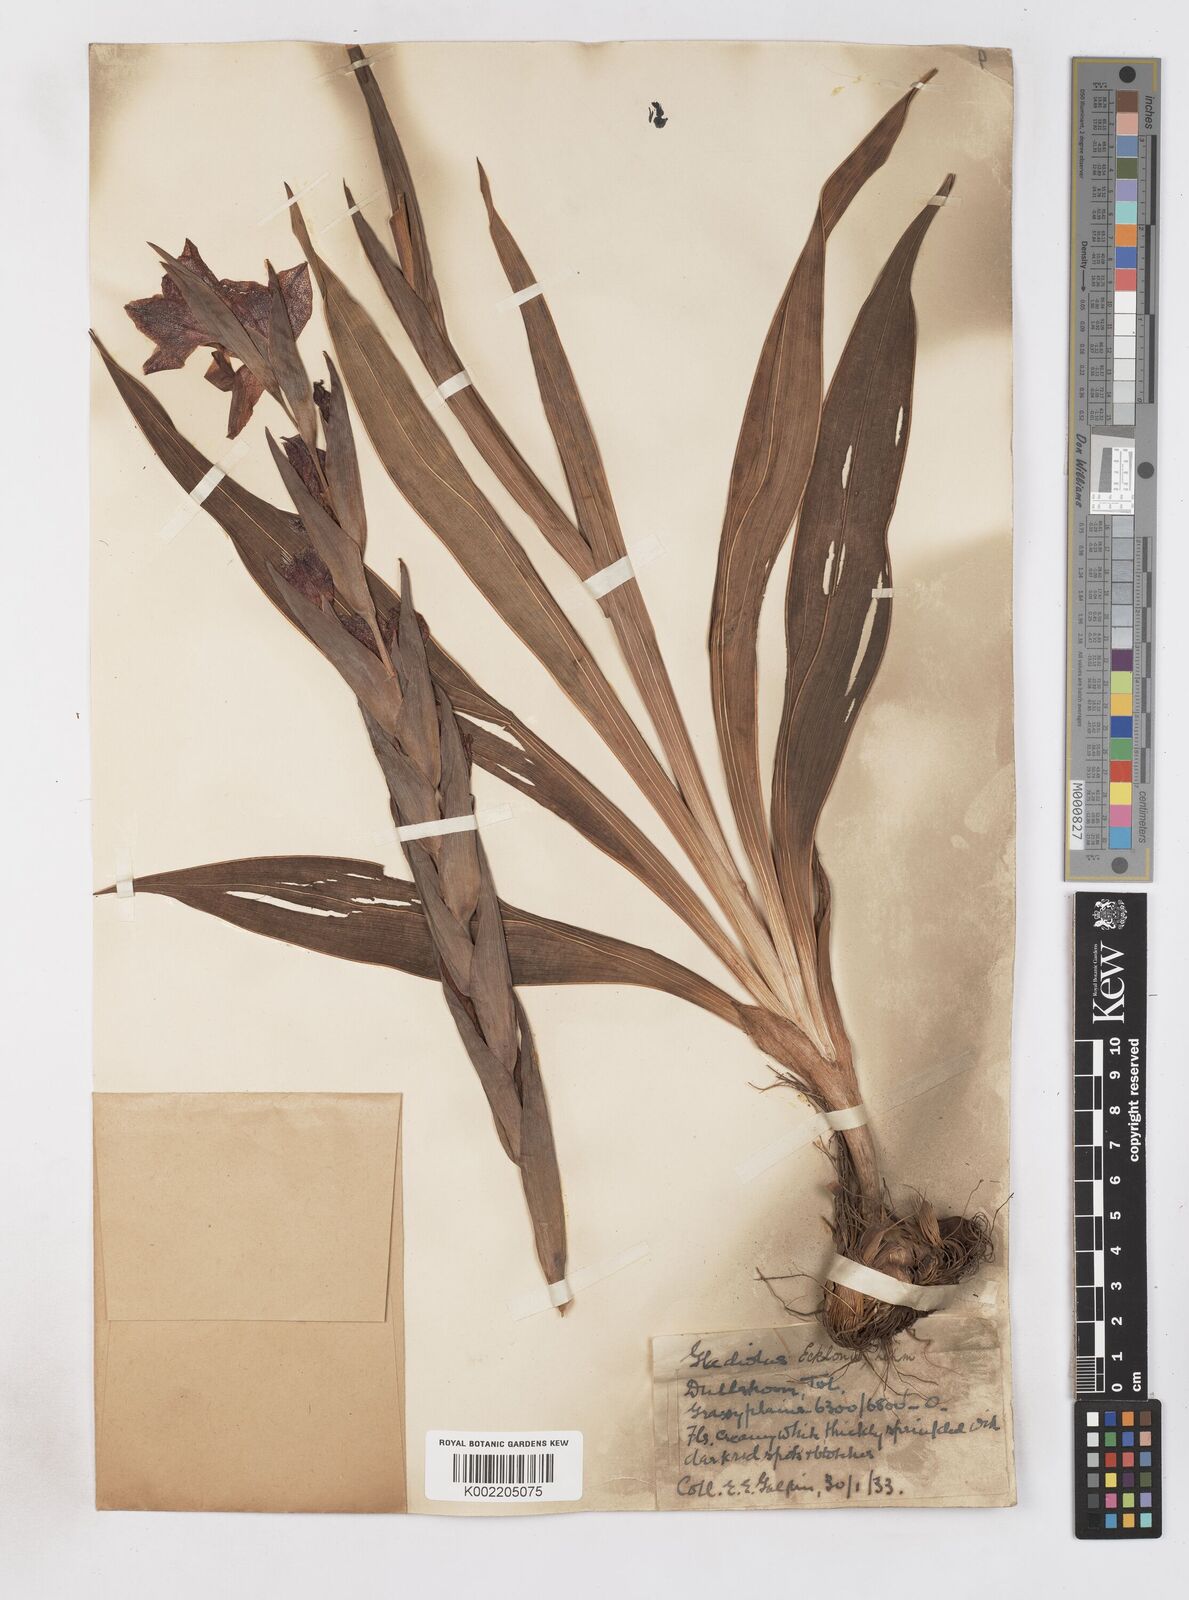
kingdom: Plantae
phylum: Tracheophyta
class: Liliopsida
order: Asparagales
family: Iridaceae
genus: Gladiolus
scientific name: Gladiolus ecklonii
